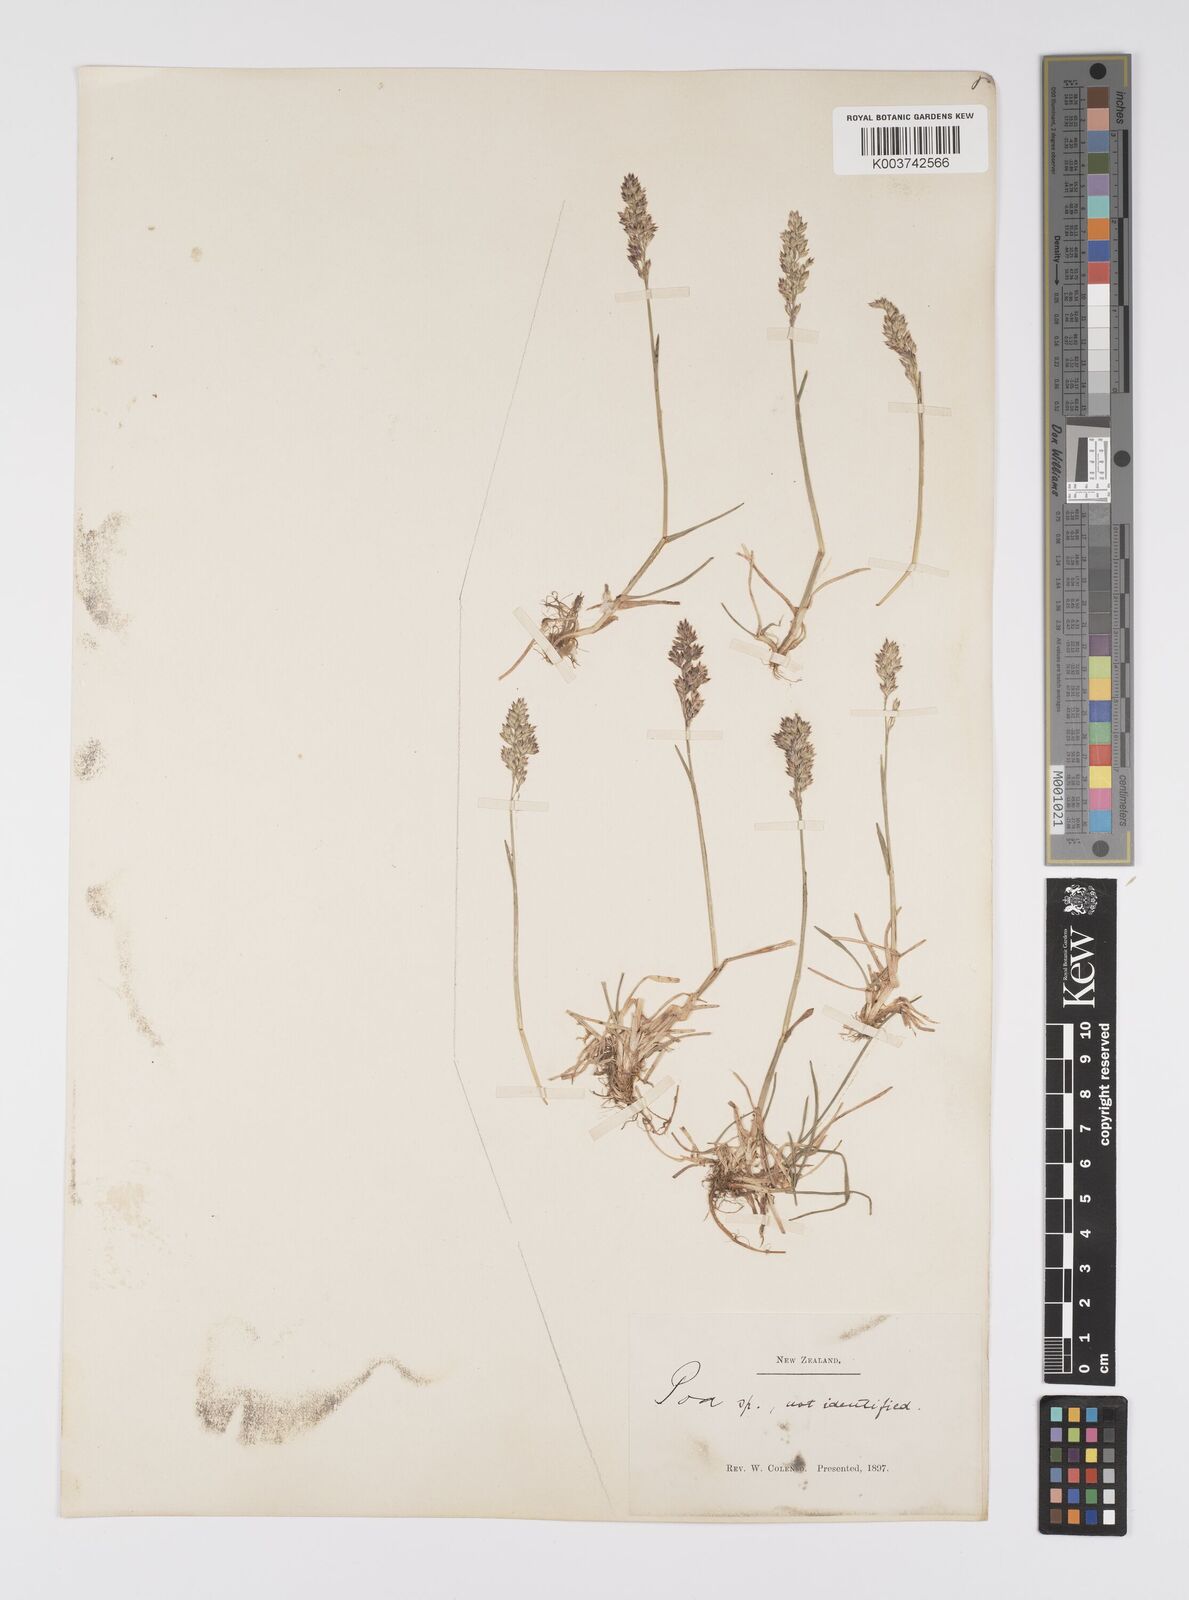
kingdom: Plantae
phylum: Tracheophyta
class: Liliopsida
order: Poales
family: Poaceae
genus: Poa
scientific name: Poa anceps
